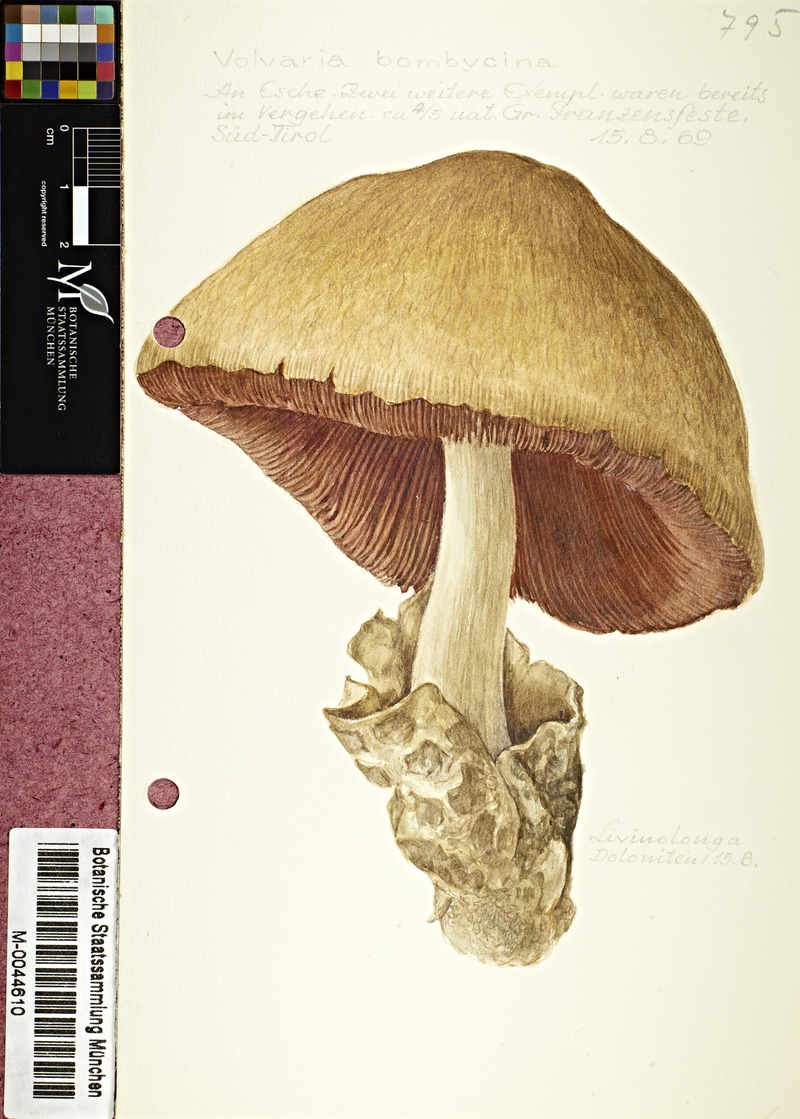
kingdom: Fungi
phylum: Basidiomycota
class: Agaricomycetes
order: Agaricales
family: Pluteaceae
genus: Volvariella
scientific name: Volvariella bombycina
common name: Silky rosegill
